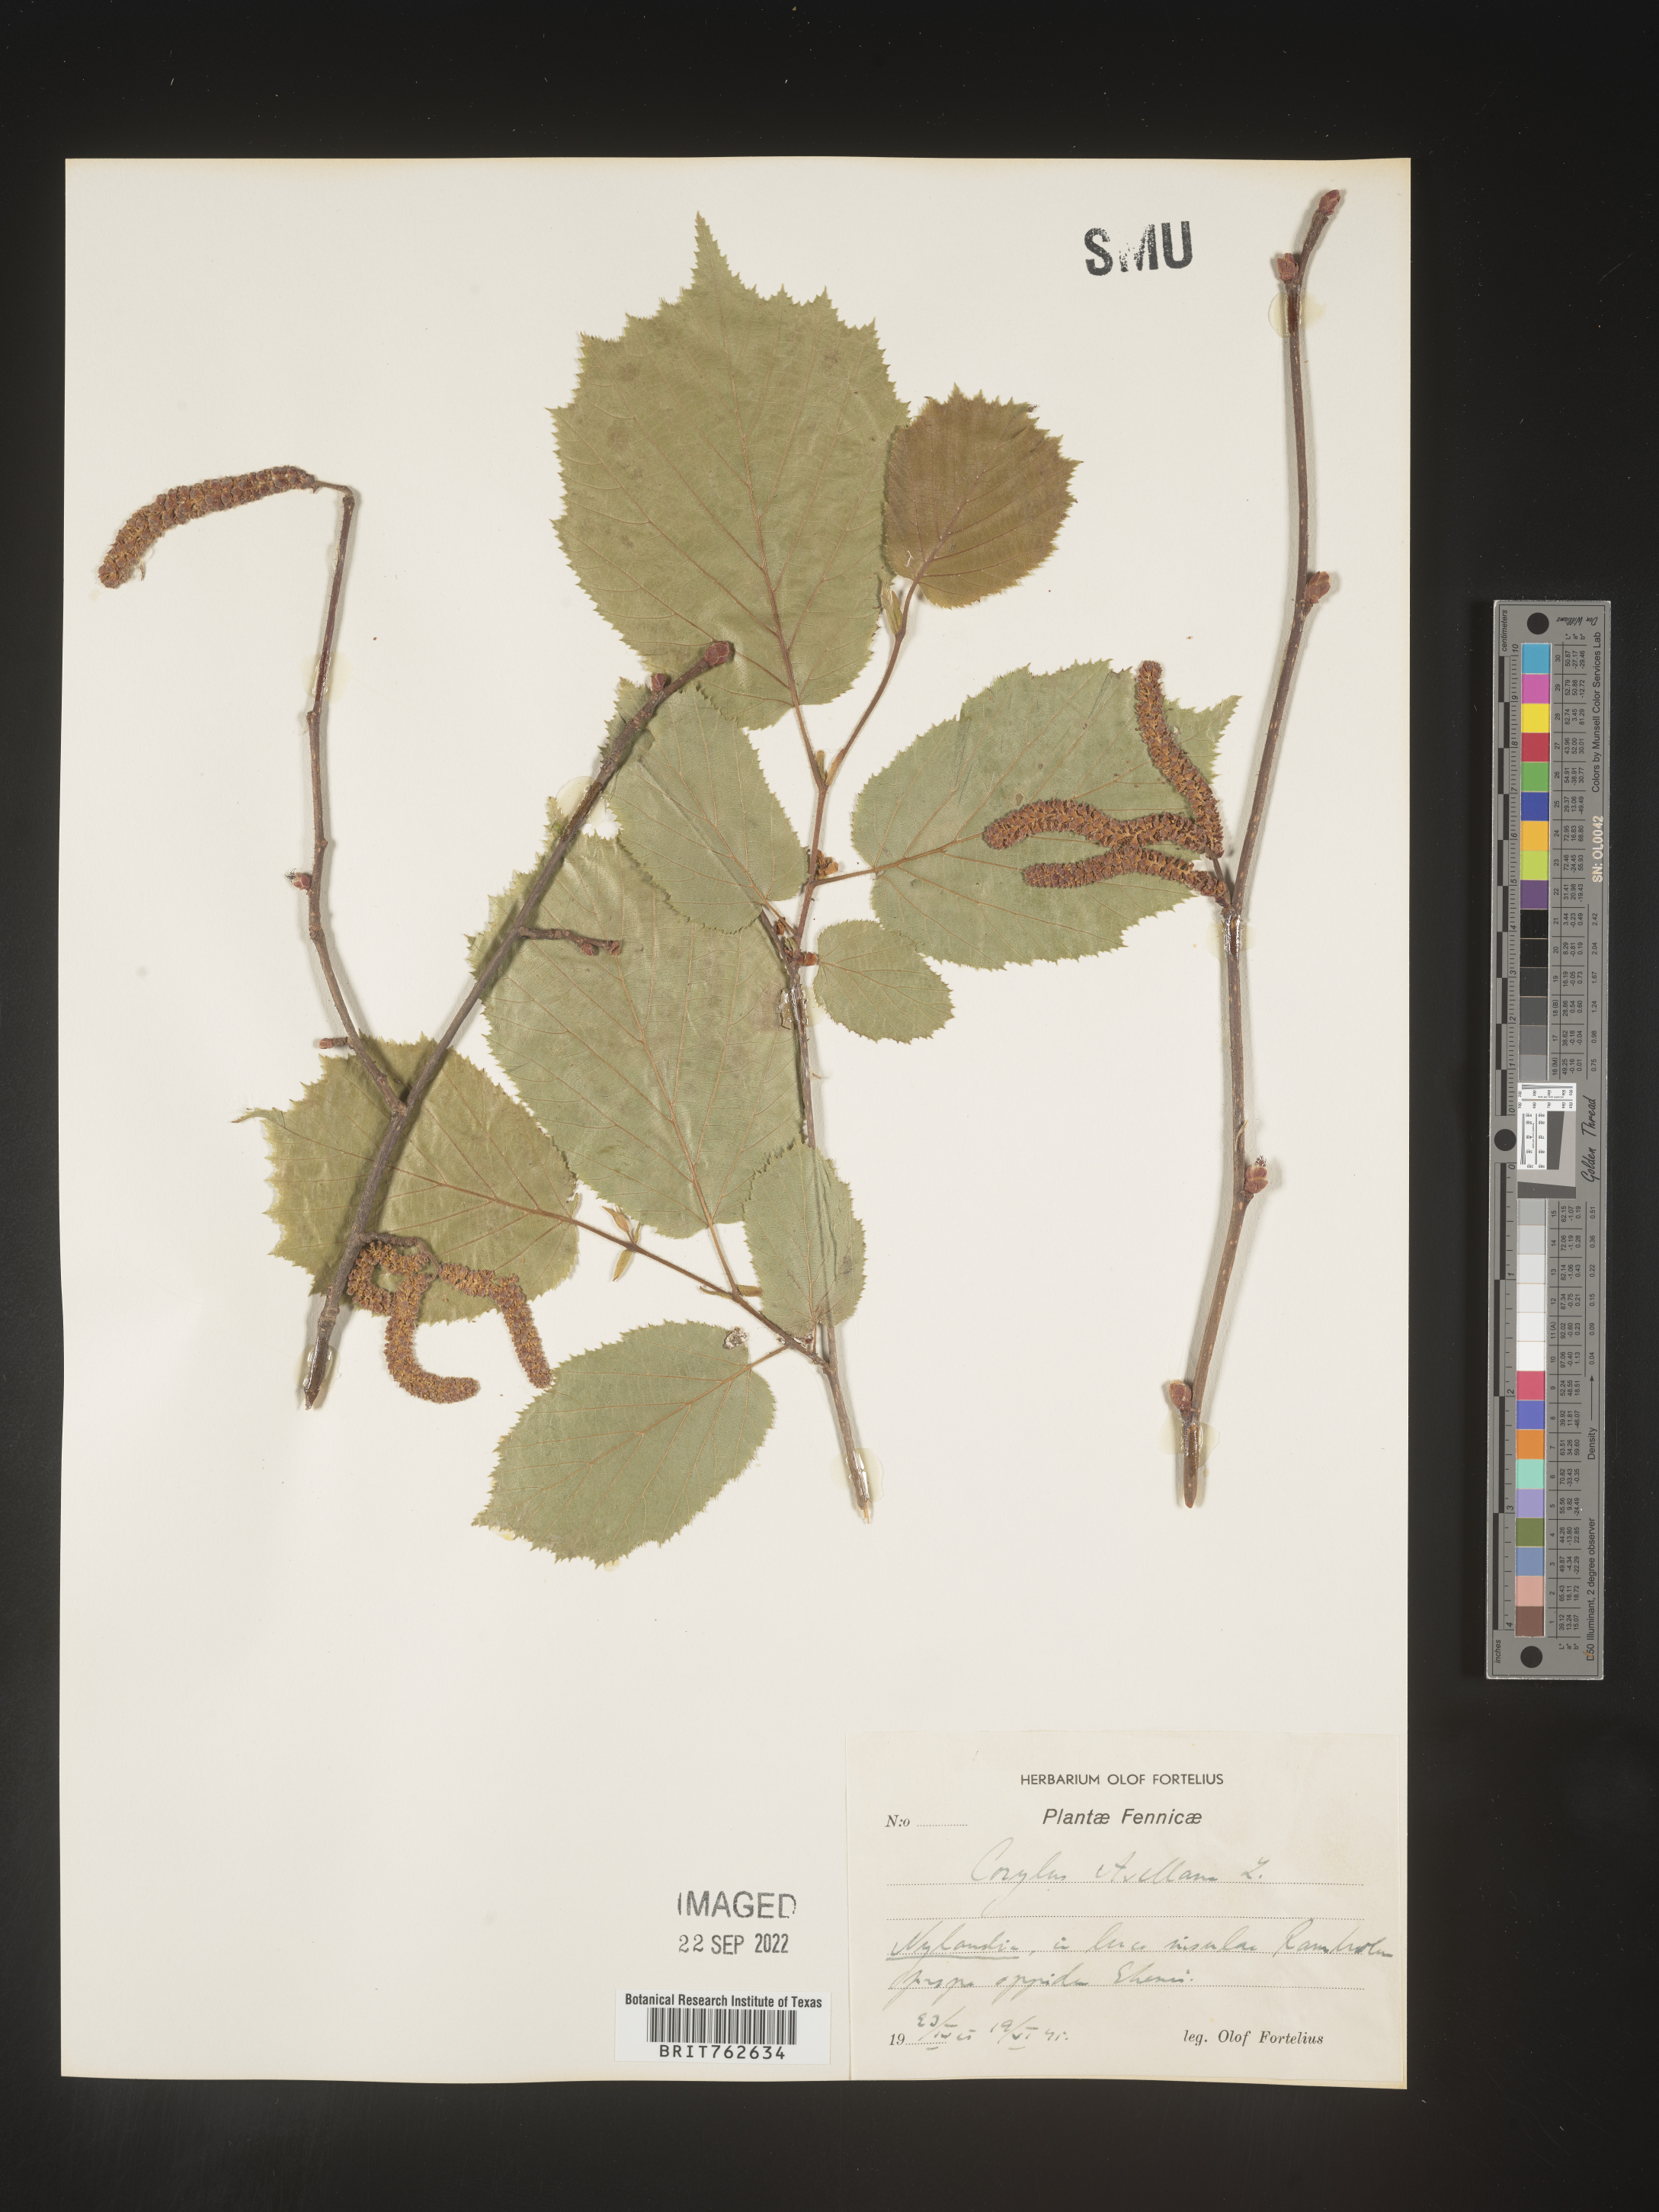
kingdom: Plantae
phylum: Tracheophyta
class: Magnoliopsida
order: Fagales
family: Betulaceae
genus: Corylus
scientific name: Corylus
